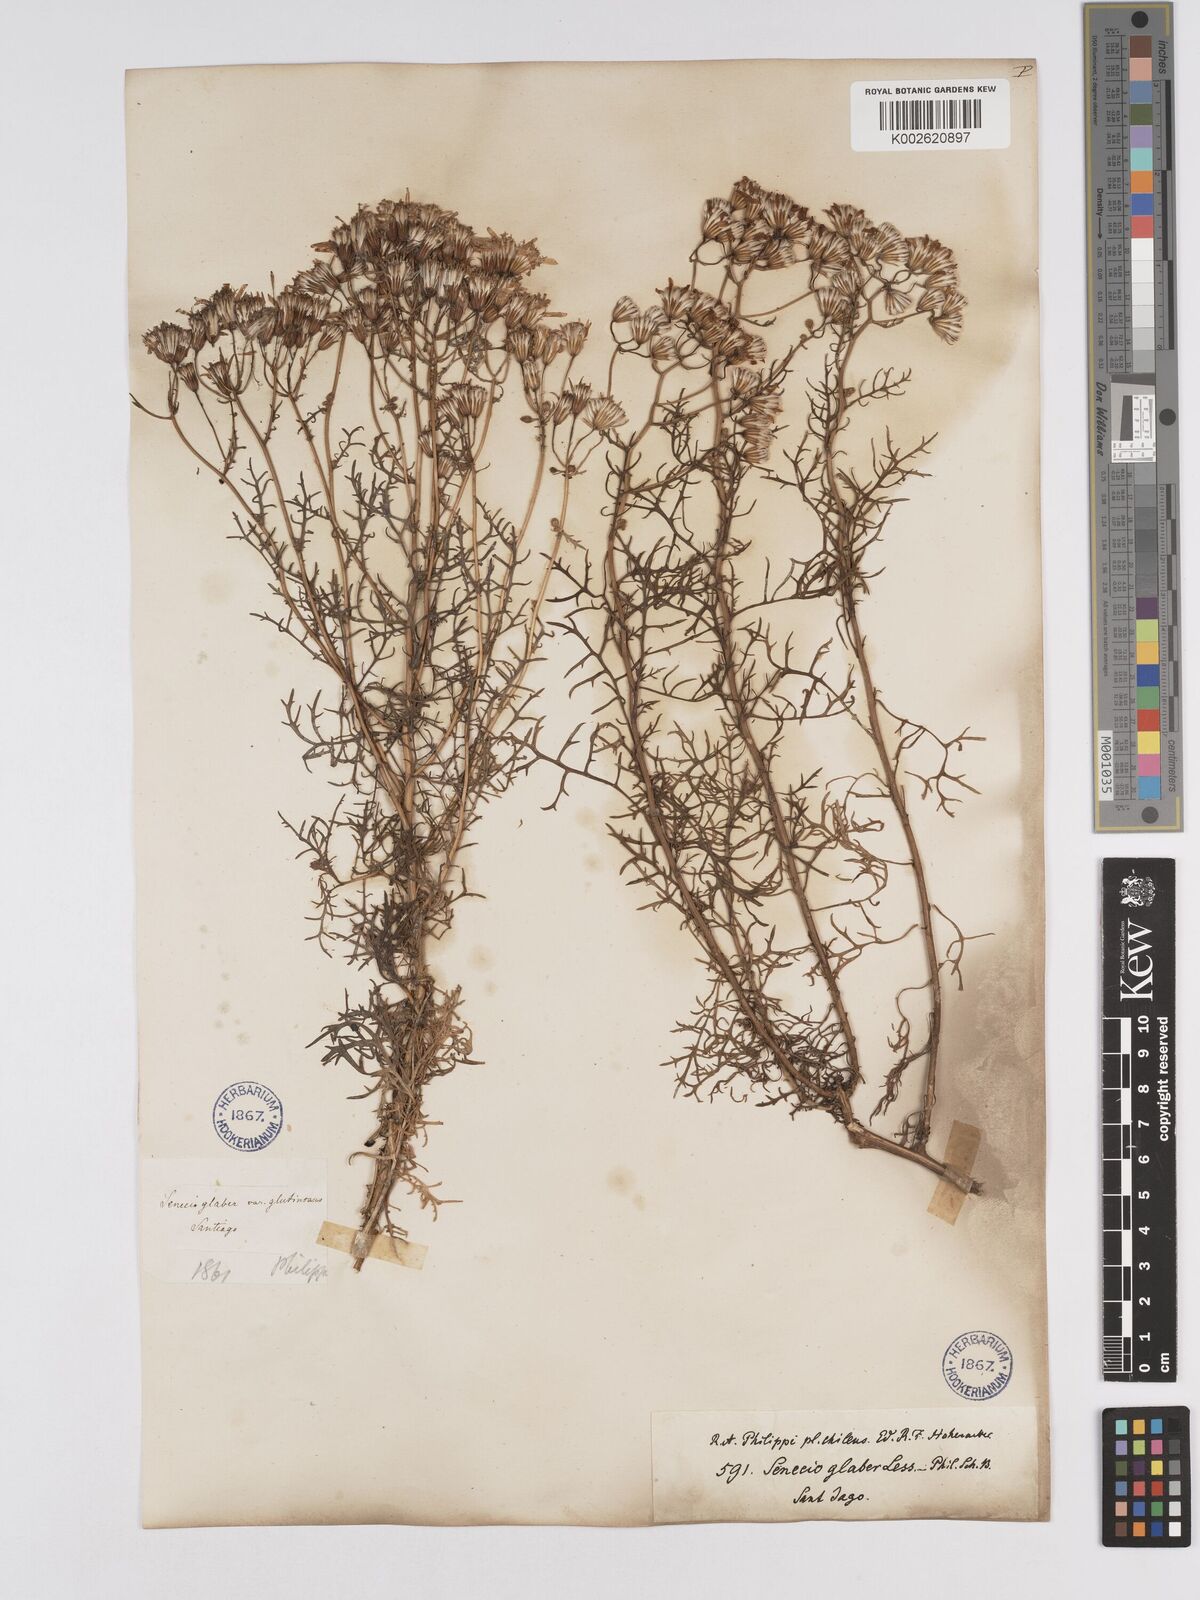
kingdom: Plantae
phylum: Tracheophyta
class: Magnoliopsida
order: Asterales
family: Asteraceae
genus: Senecio
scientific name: Senecio glaber
